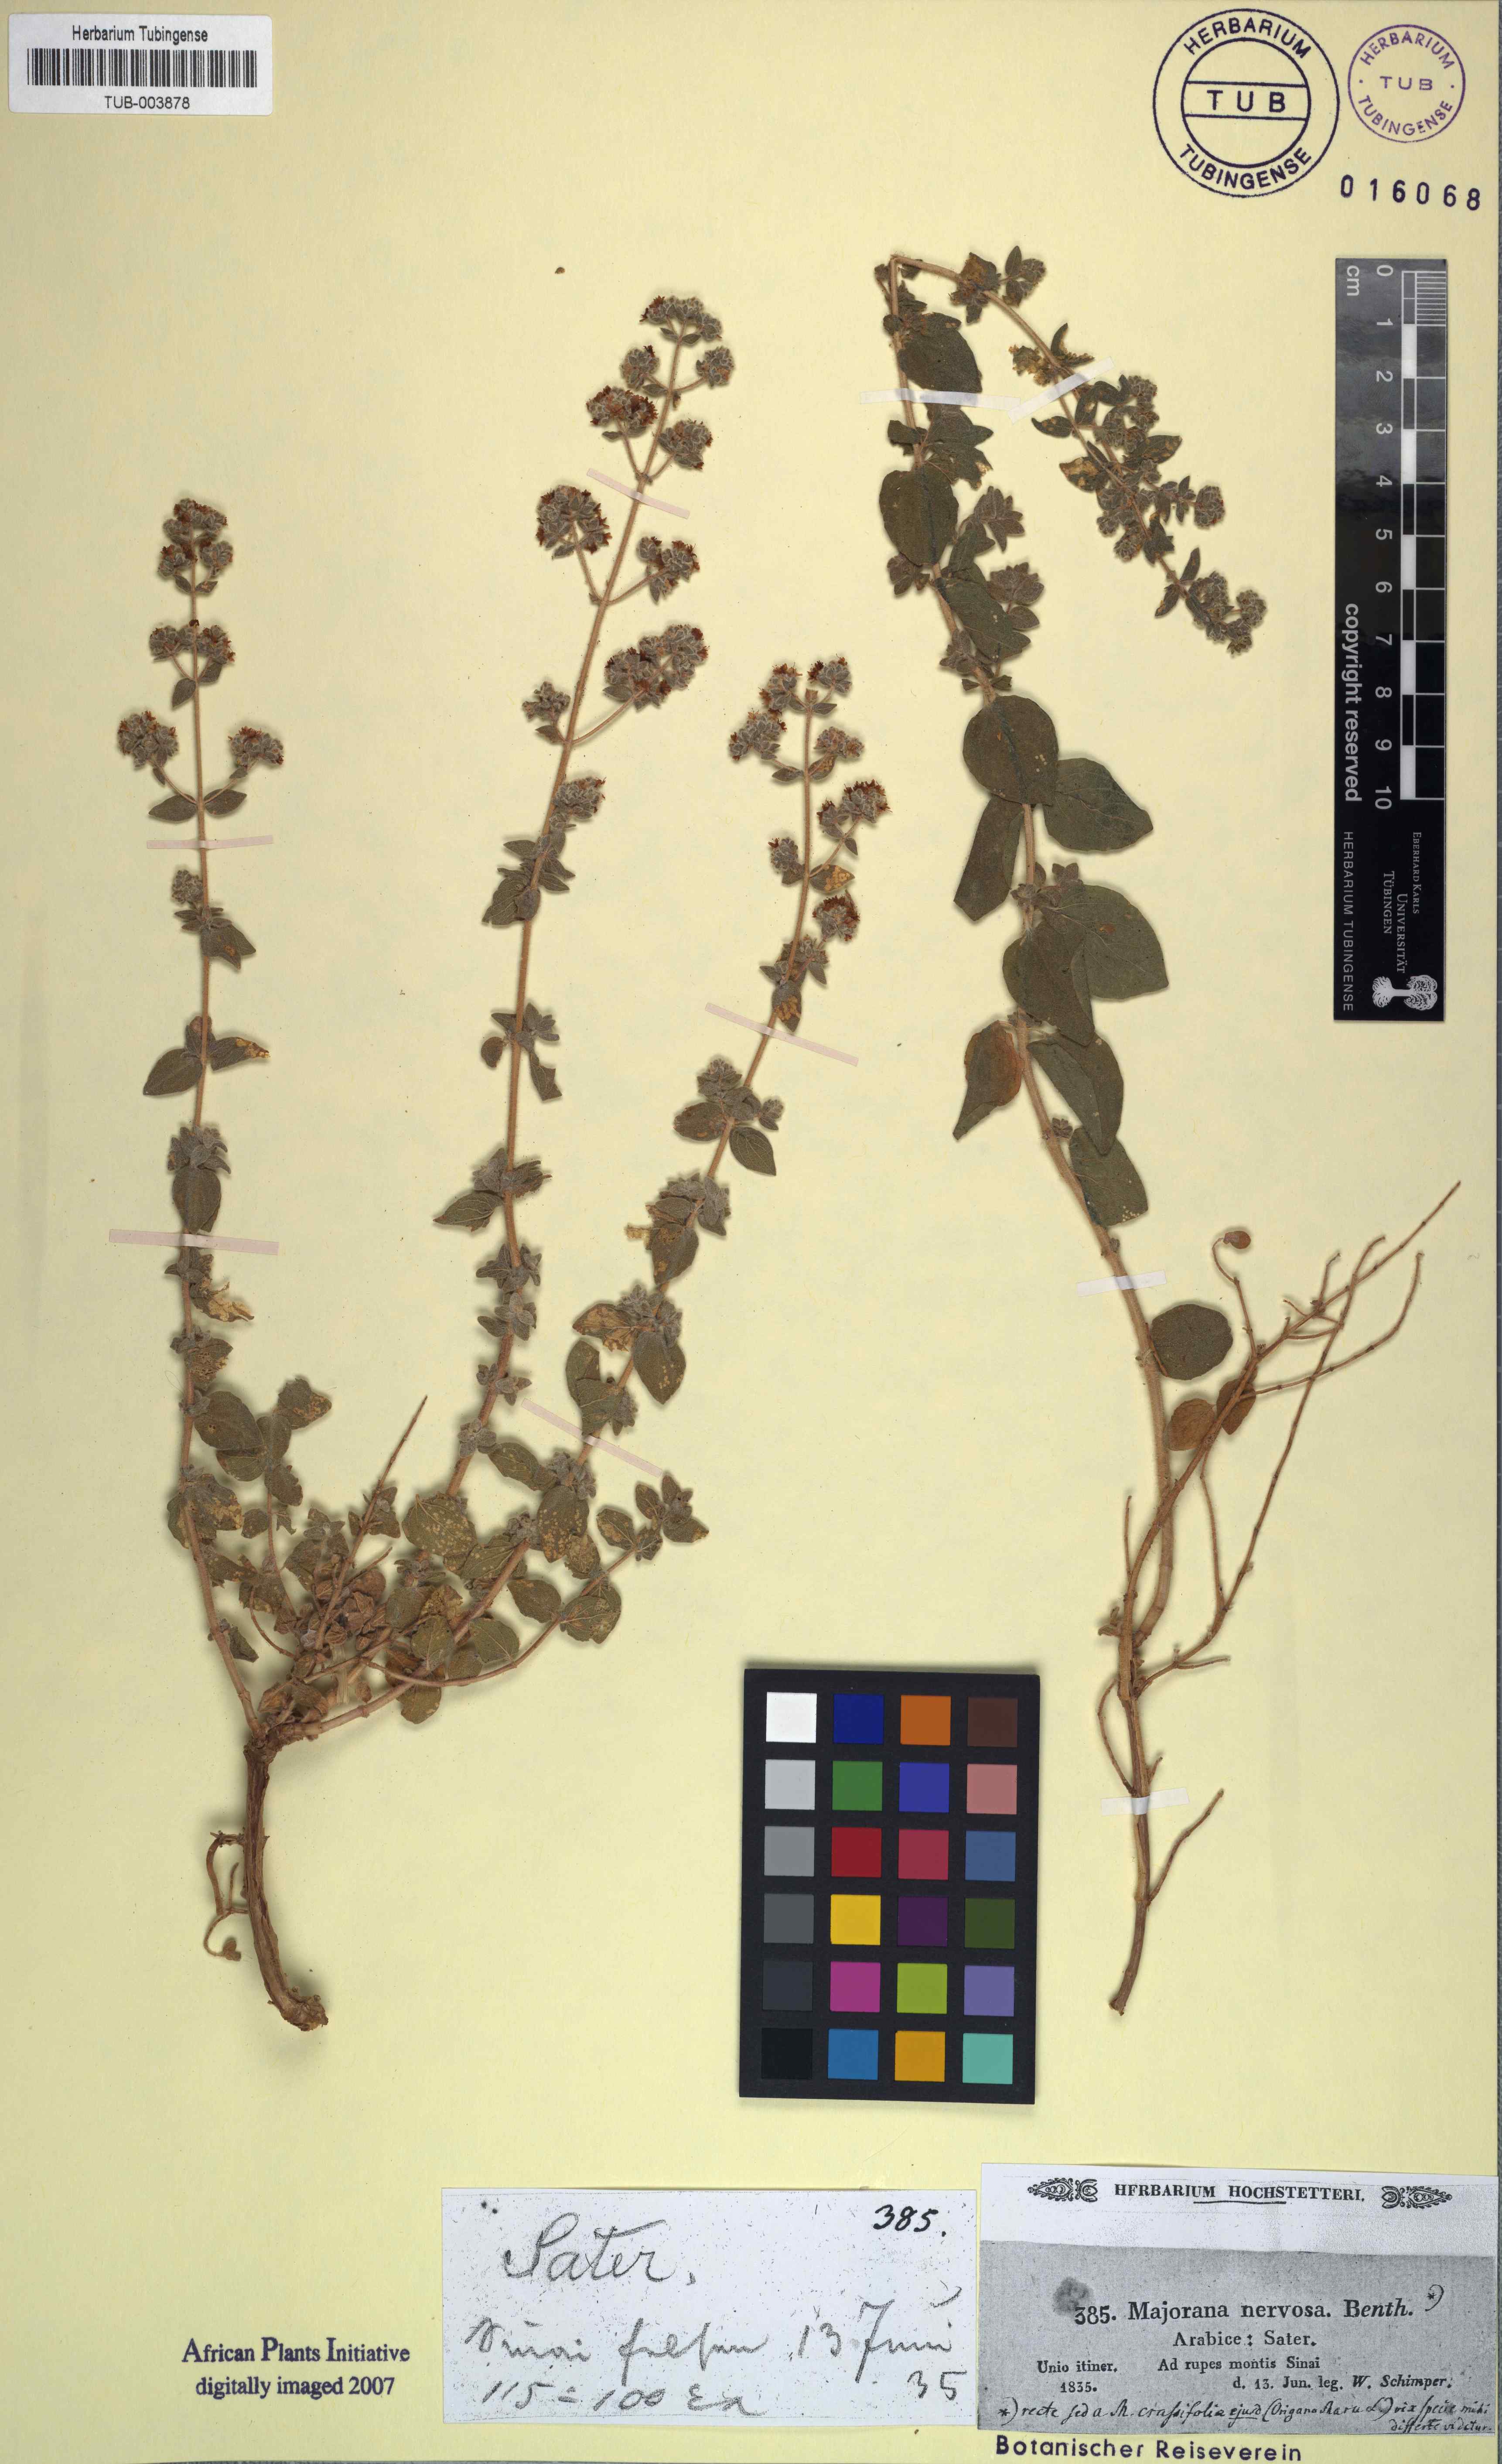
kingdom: Plantae
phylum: Tracheophyta
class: Magnoliopsida
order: Lamiales
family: Lamiaceae
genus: Origanum
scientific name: Origanum syriacum
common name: Biblical-hyssop
